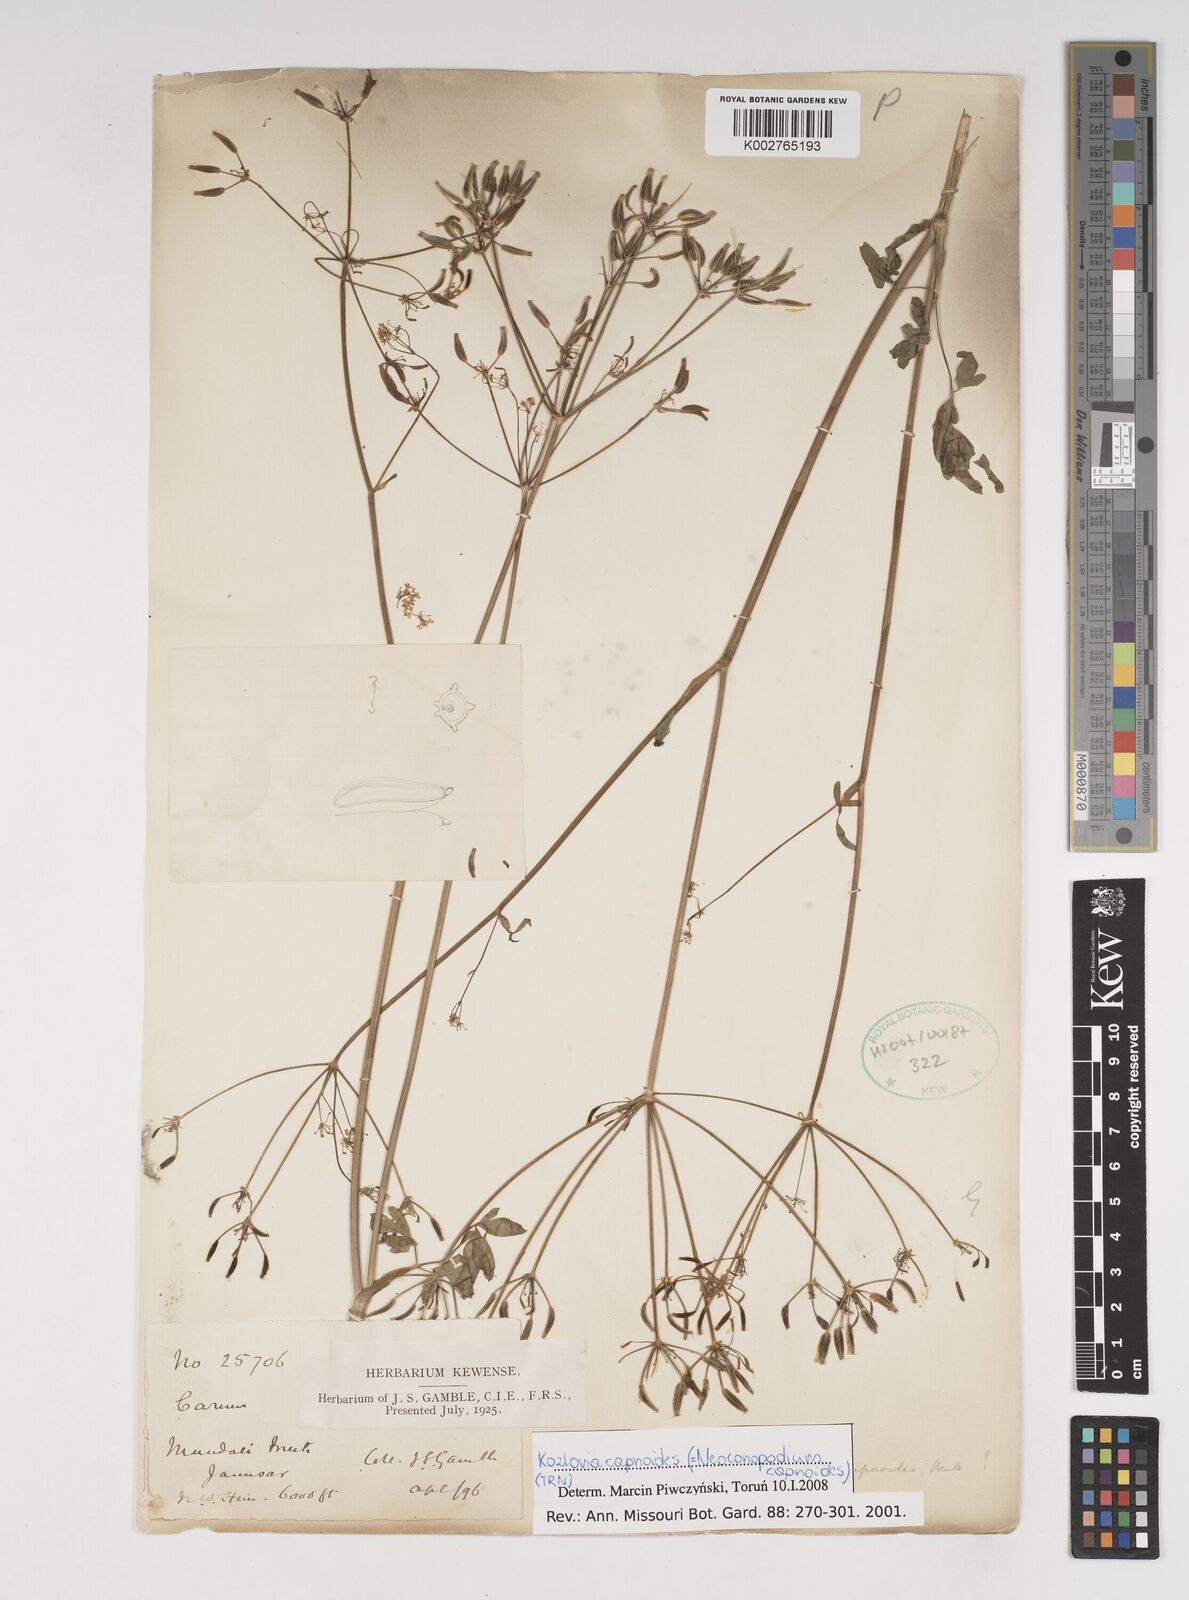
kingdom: Plantae
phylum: Tracheophyta
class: Magnoliopsida
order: Apiales
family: Apiaceae
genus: Kozlovia
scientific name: Kozlovia capnoides
